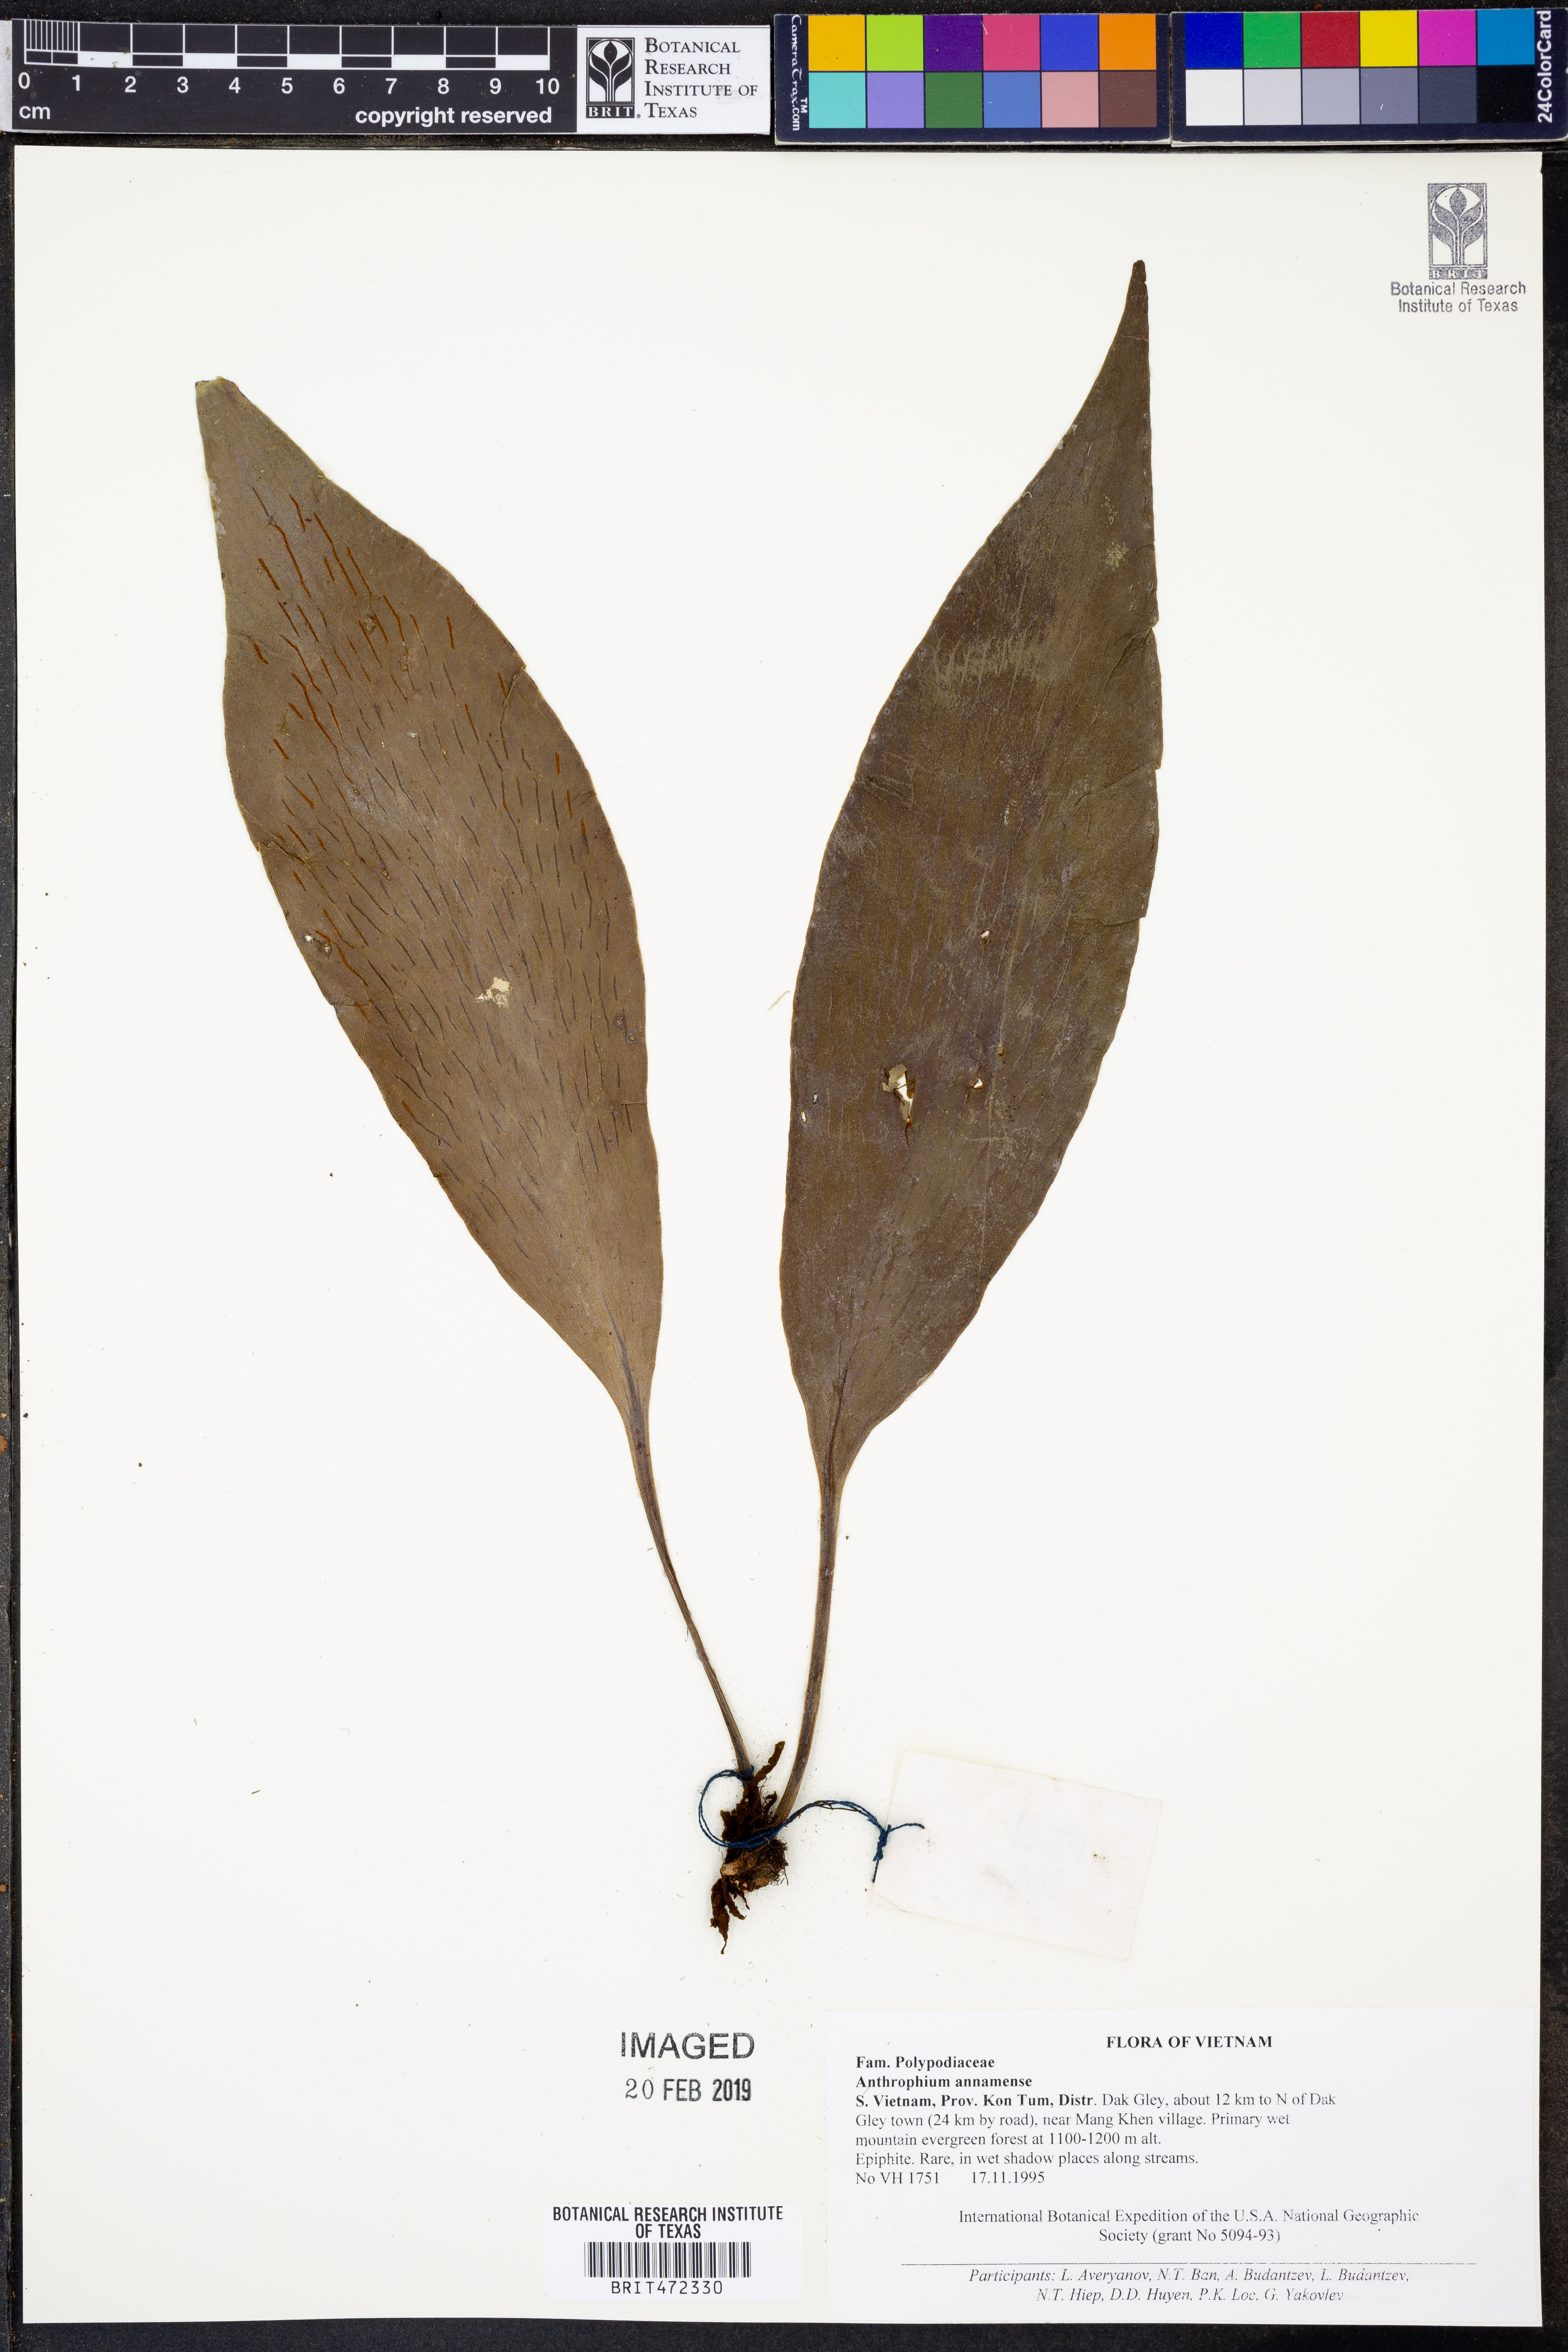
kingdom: Plantae
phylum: Tracheophyta
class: Polypodiopsida
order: Polypodiales
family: Pteridaceae
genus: Antrophyum
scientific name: Antrophyum annamense
